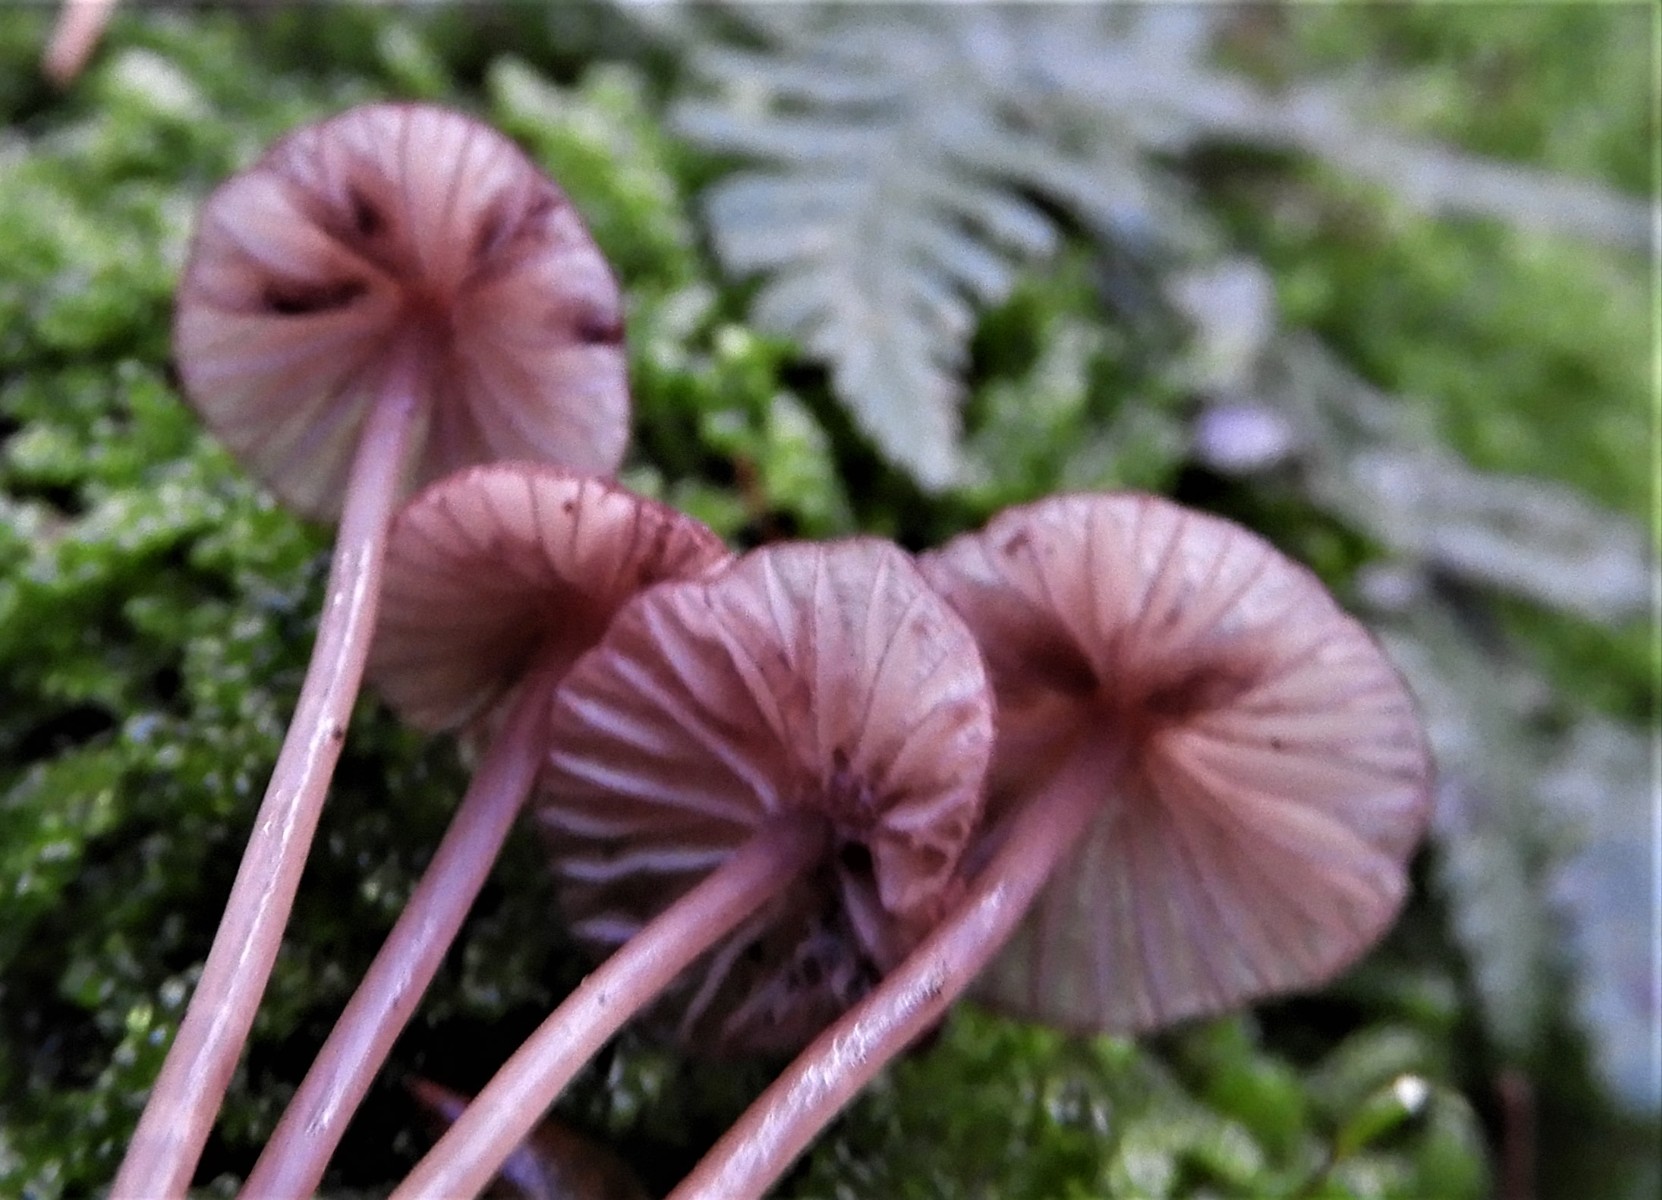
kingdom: Fungi
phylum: Basidiomycota
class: Agaricomycetes
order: Agaricales
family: Mycenaceae
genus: Mycena
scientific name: Mycena sanguinolenta
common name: rødmælket huesvamp
